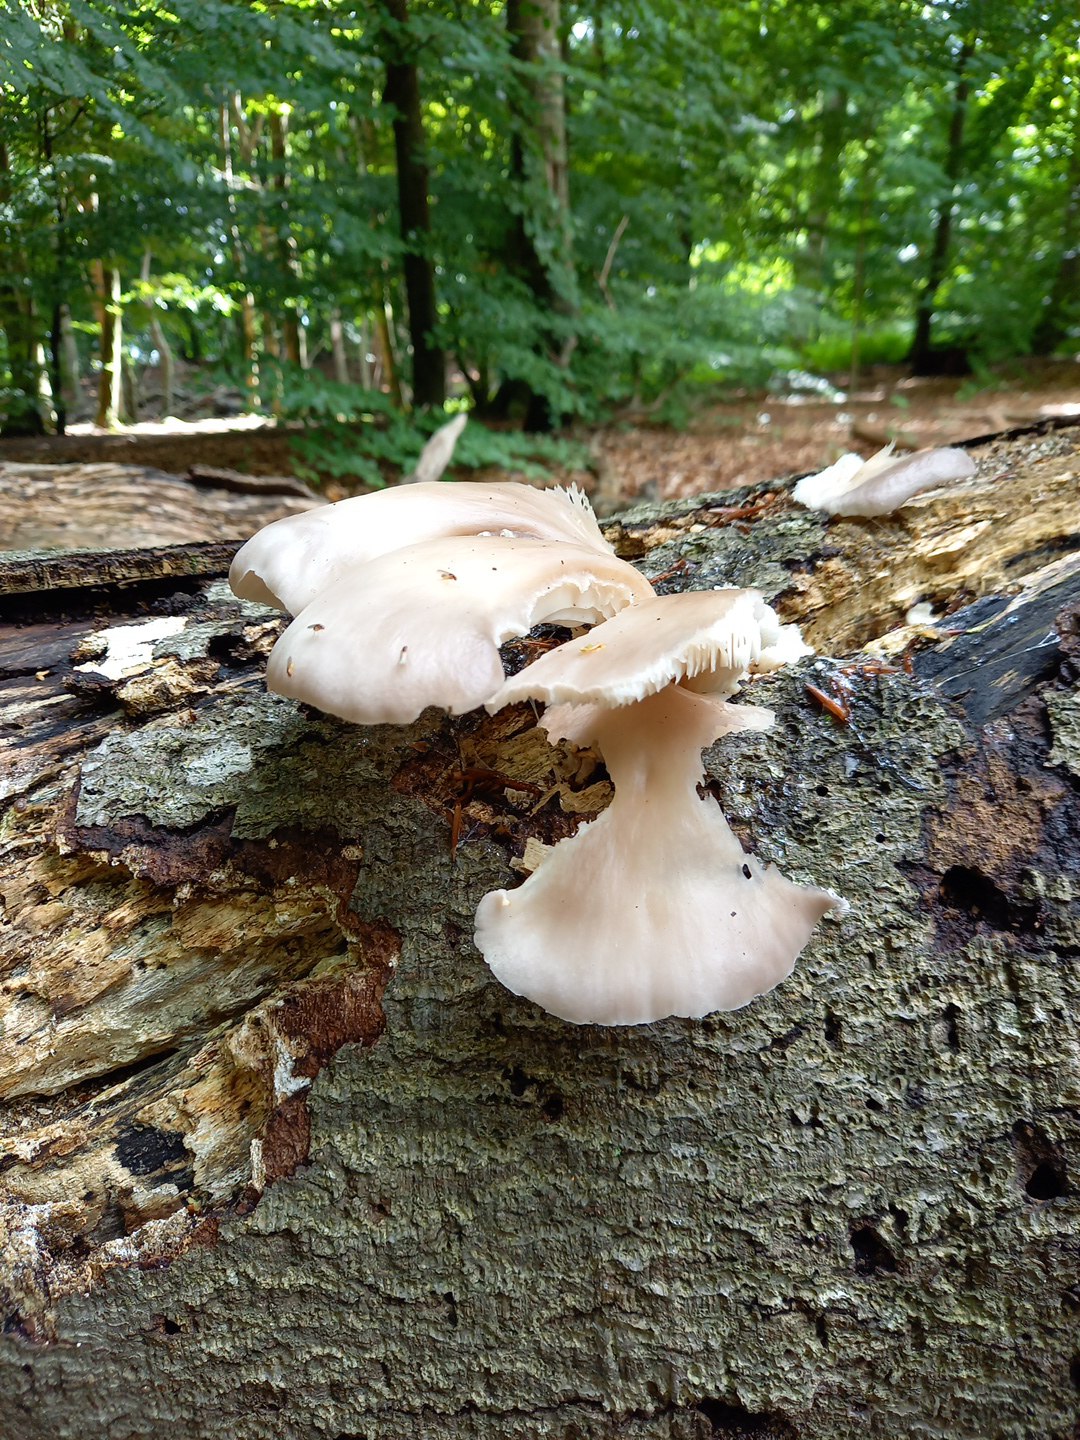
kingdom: Fungi
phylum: Basidiomycota
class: Agaricomycetes
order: Agaricales
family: Pleurotaceae
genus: Pleurotus
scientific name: Pleurotus pulmonarius
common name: sommer-østershat
